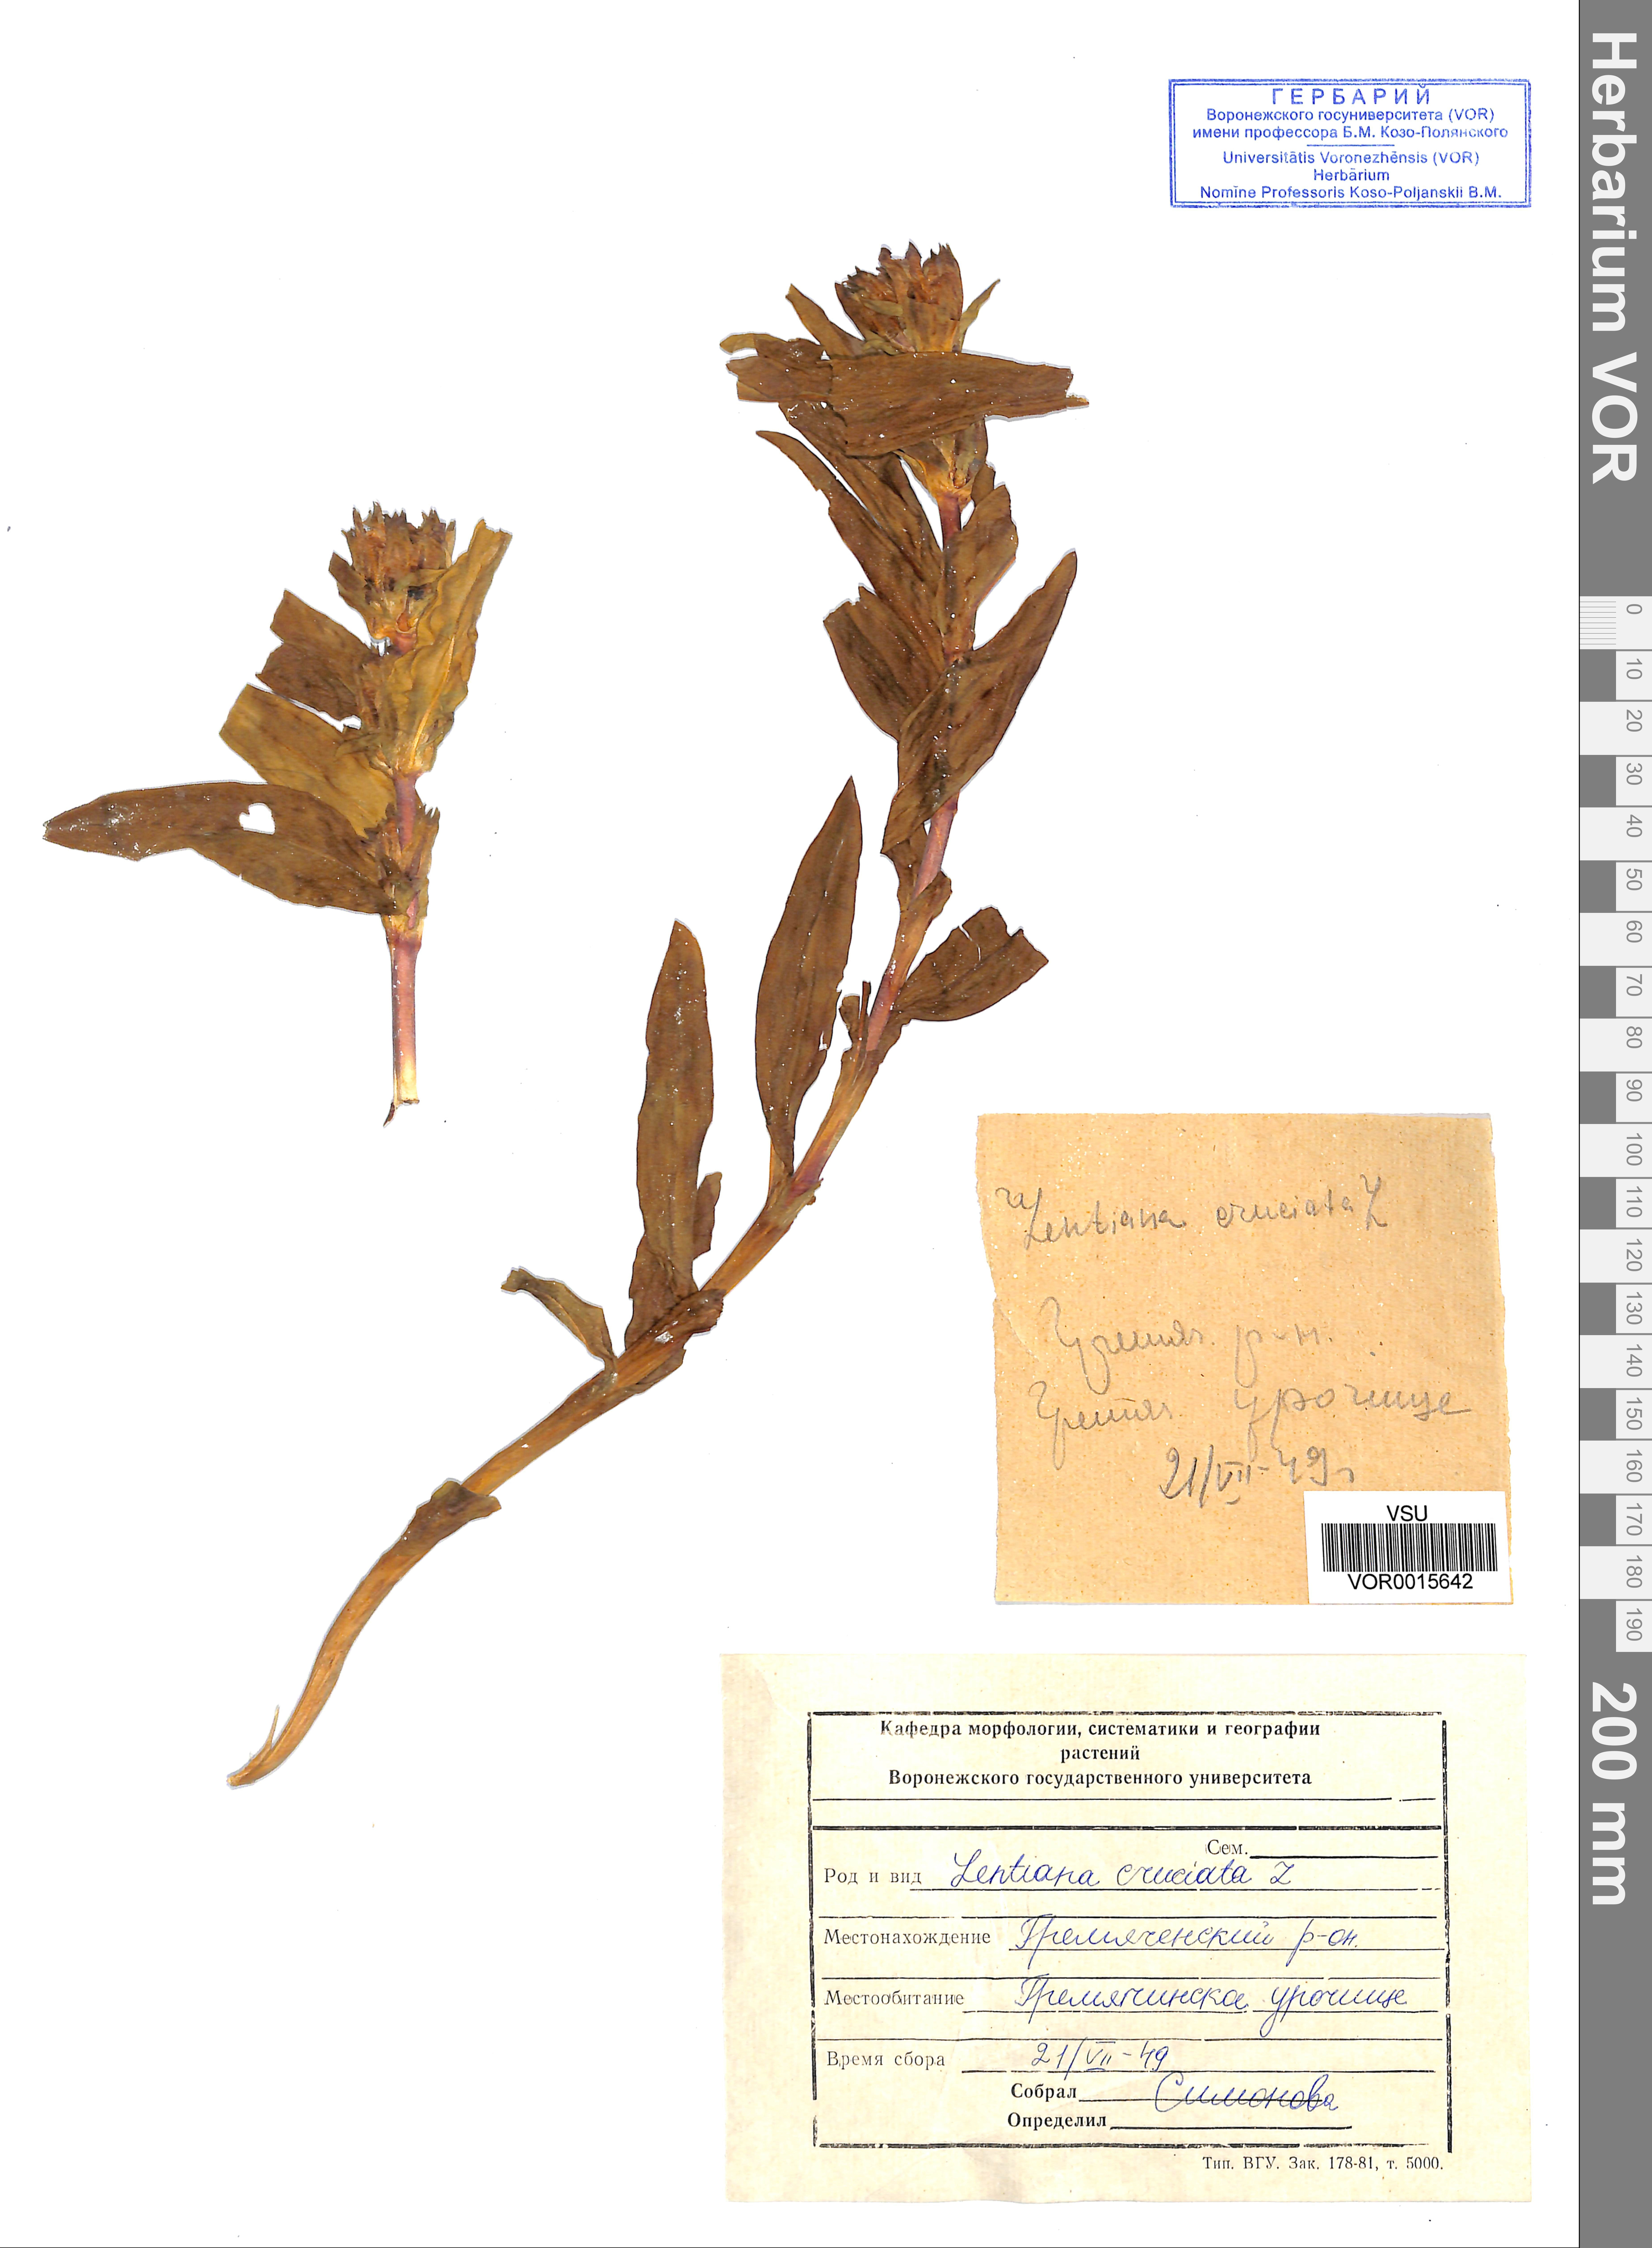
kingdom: Plantae
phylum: Tracheophyta
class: Magnoliopsida
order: Gentianales
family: Gentianaceae
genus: Gentiana
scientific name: Gentiana cruciata
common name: Cross gentian
